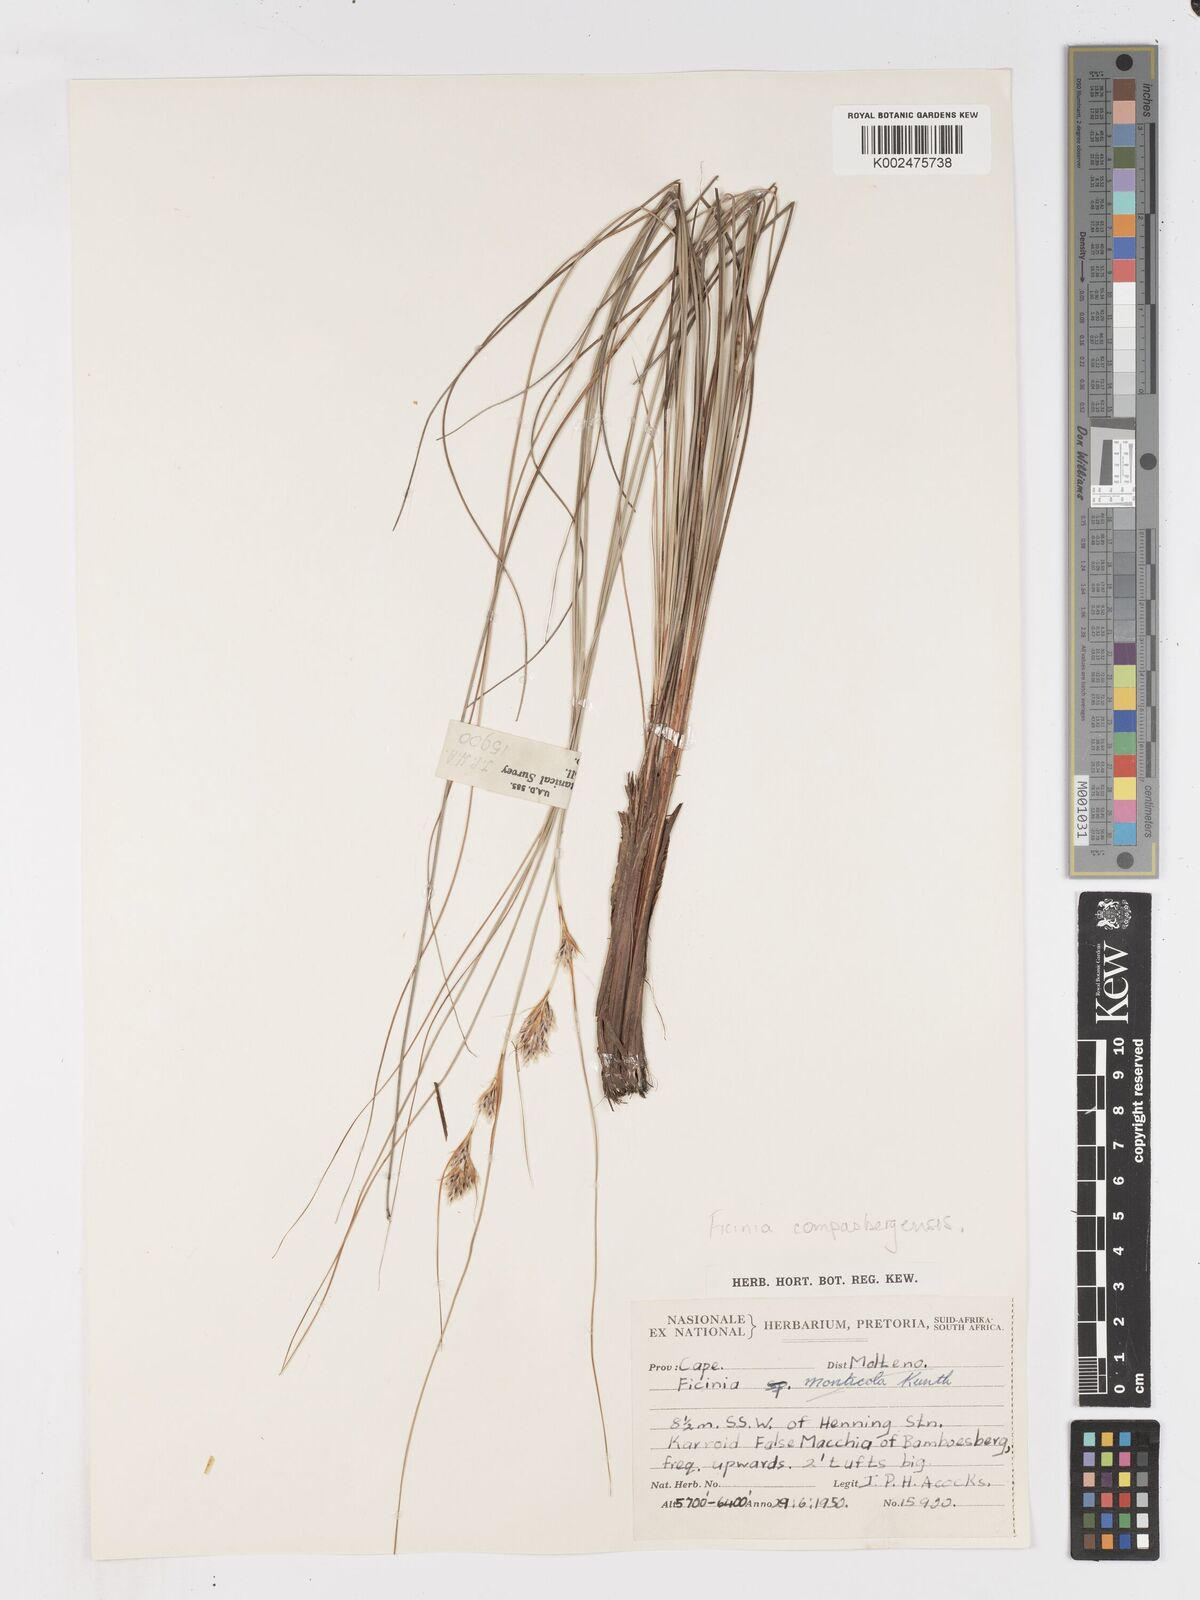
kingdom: Plantae
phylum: Tracheophyta
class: Liliopsida
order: Poales
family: Cyperaceae
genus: Ficinia
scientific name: Ficinia compasbergensis
